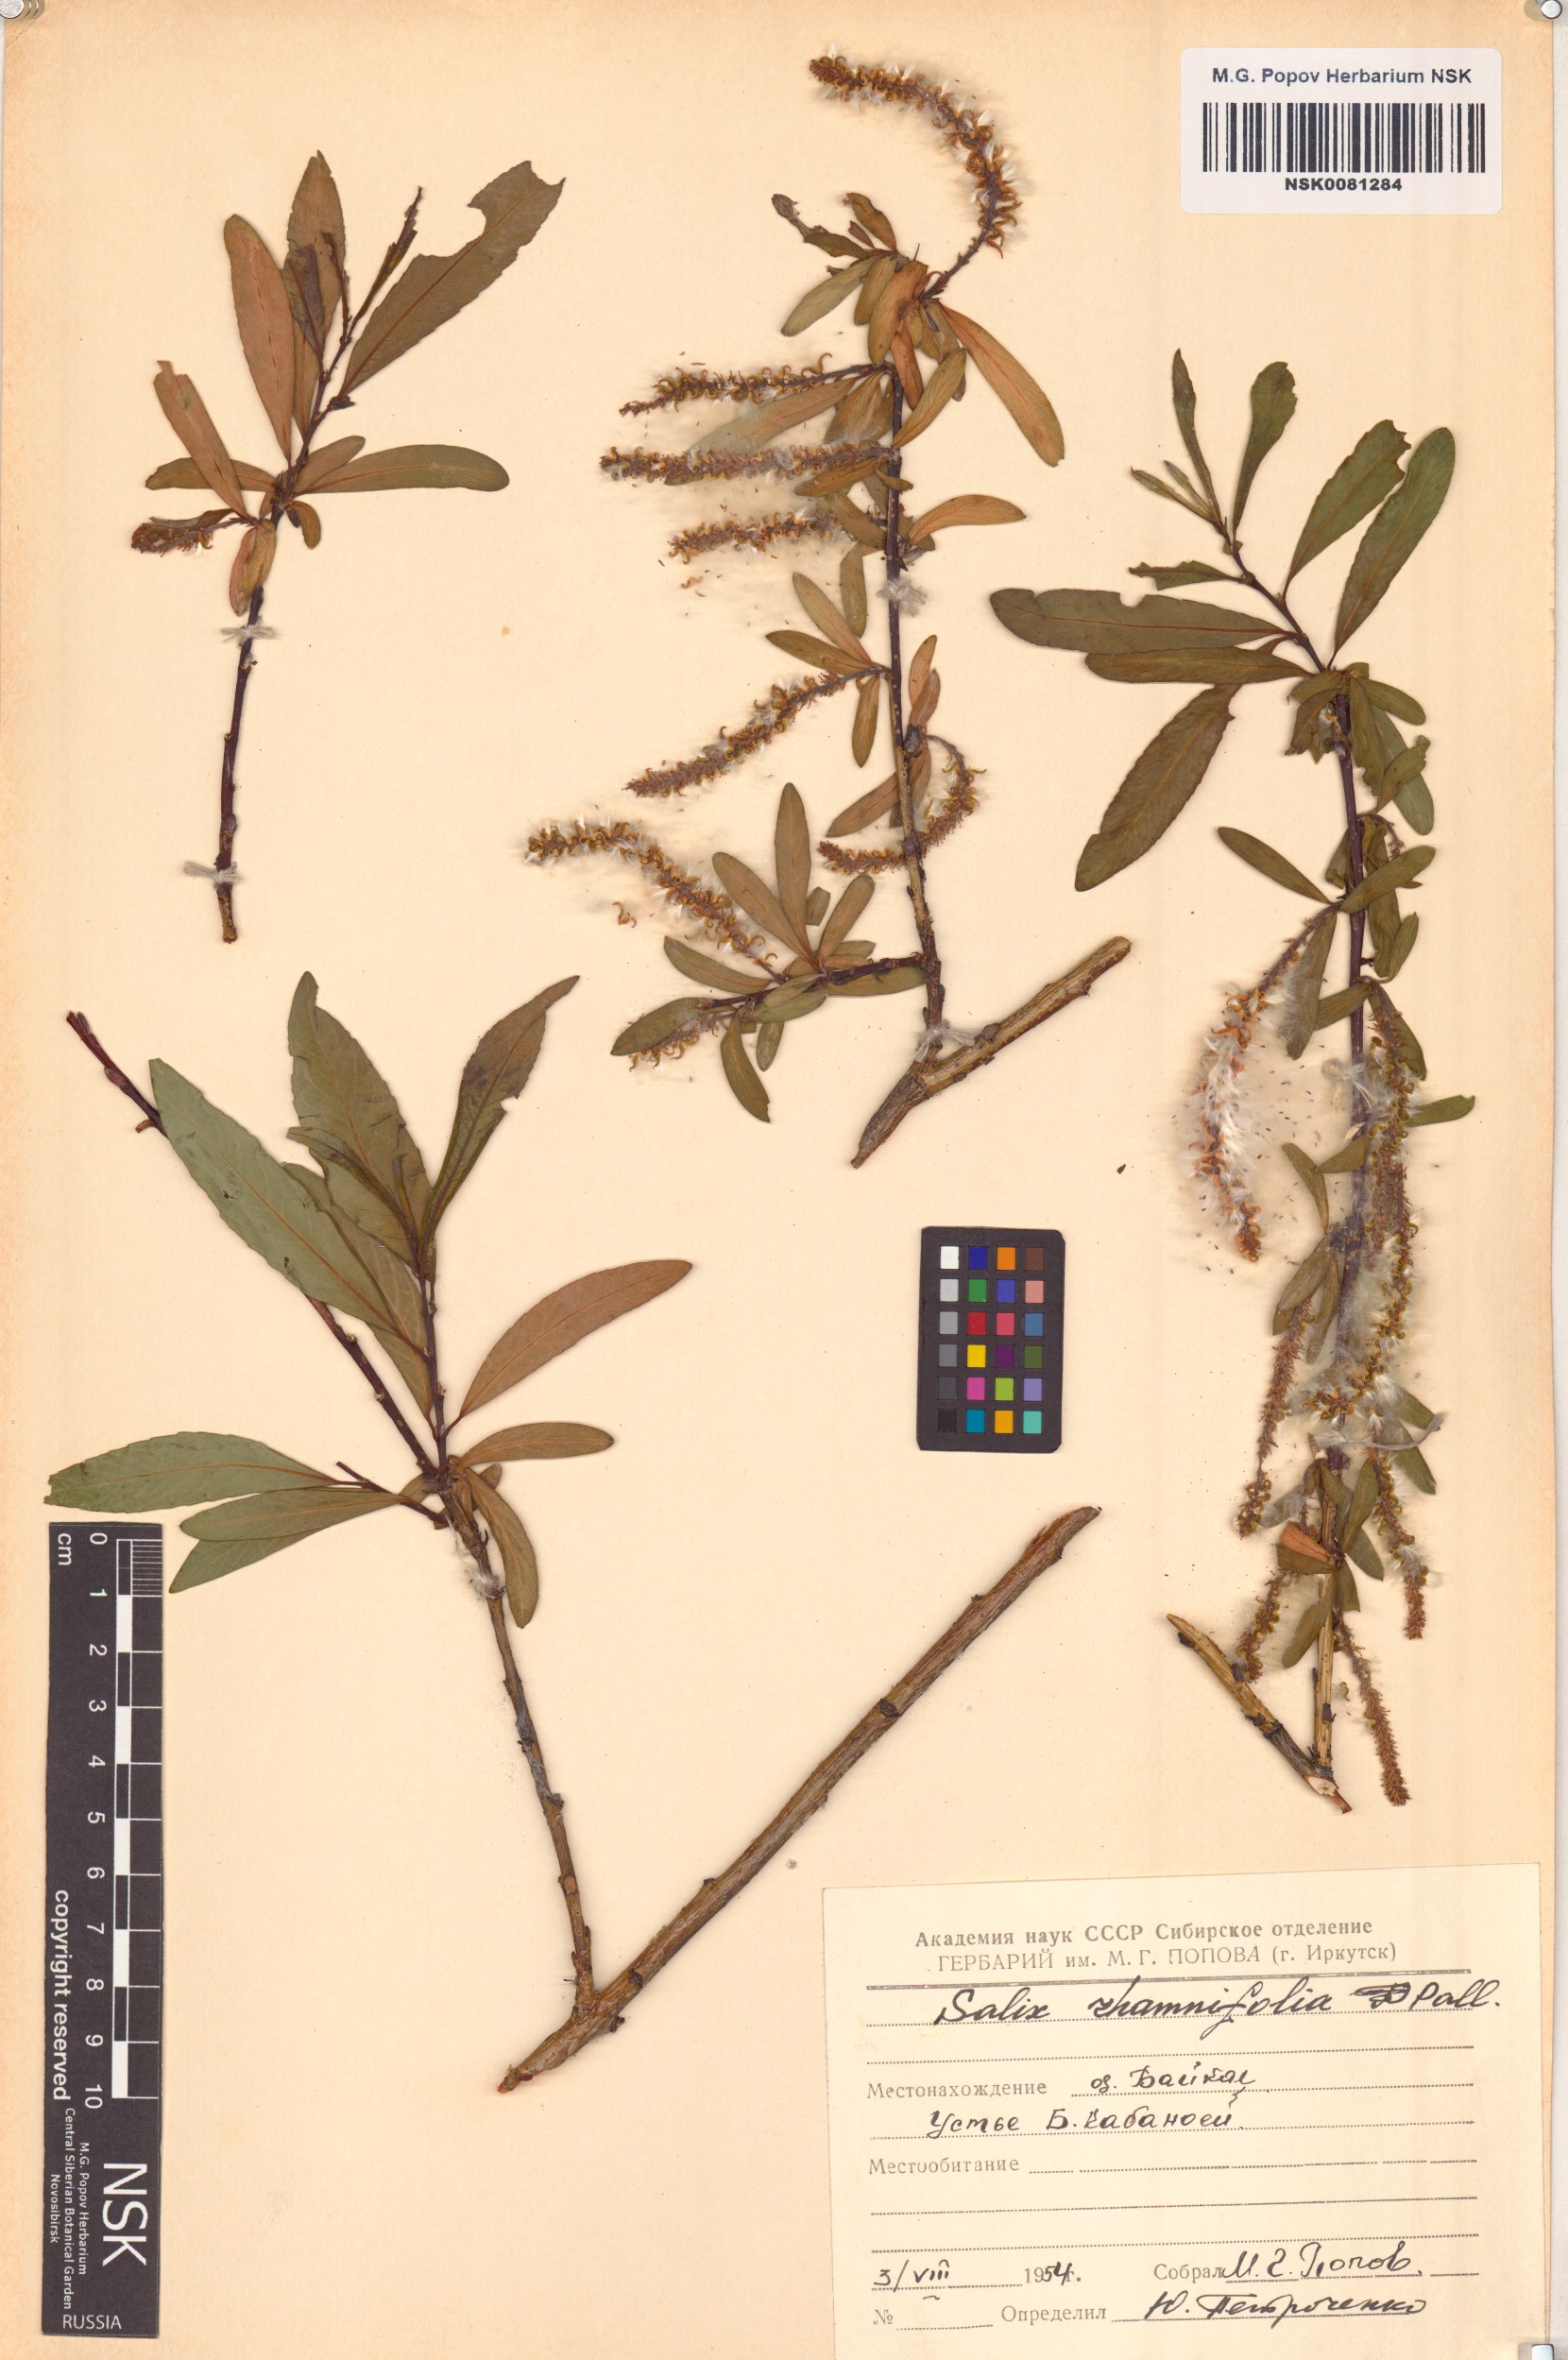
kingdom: Plantae
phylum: Tracheophyta
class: Magnoliopsida
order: Malpighiales
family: Salicaceae
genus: Salix
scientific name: Salix rhamnifolia
